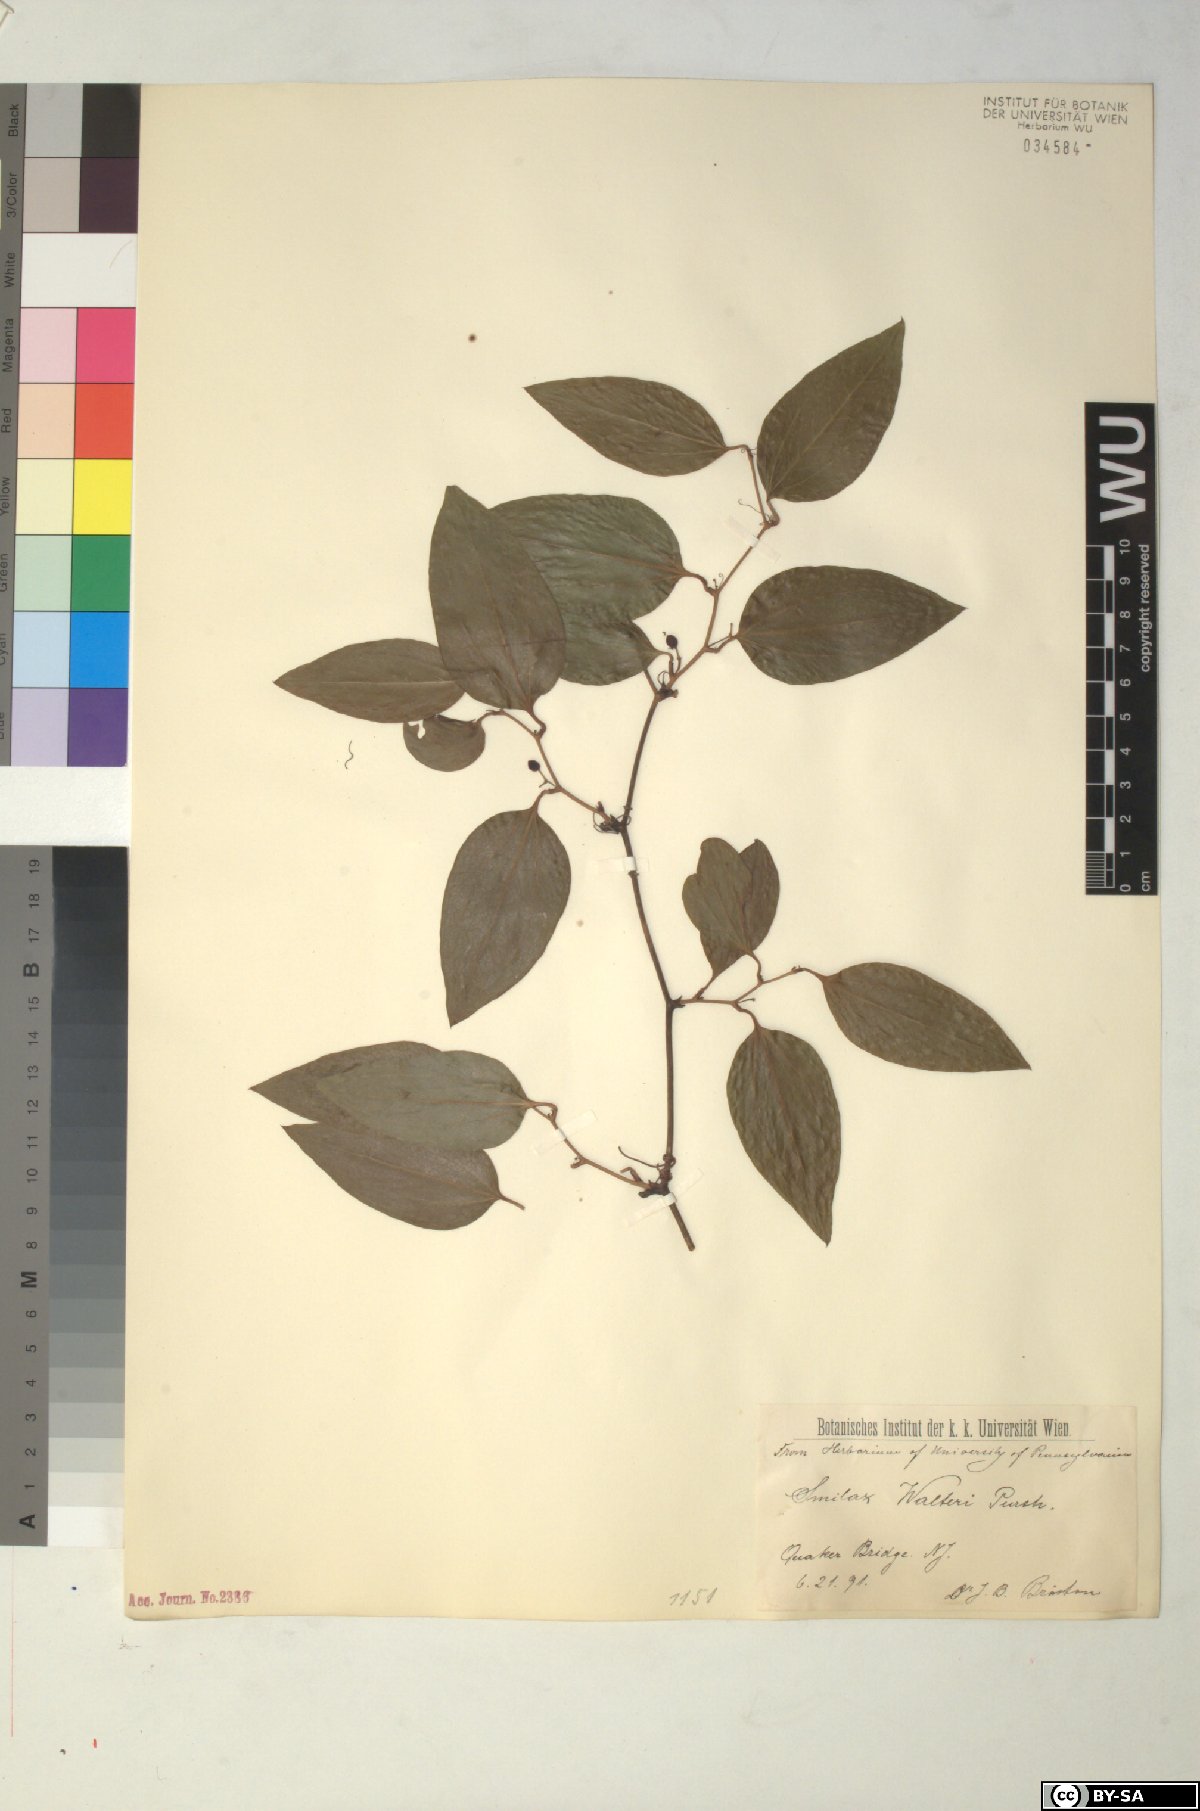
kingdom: Plantae
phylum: Tracheophyta
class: Liliopsida
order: Liliales
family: Smilacaceae
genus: Smilax
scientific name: Smilax walteri
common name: Coral greenbrier
